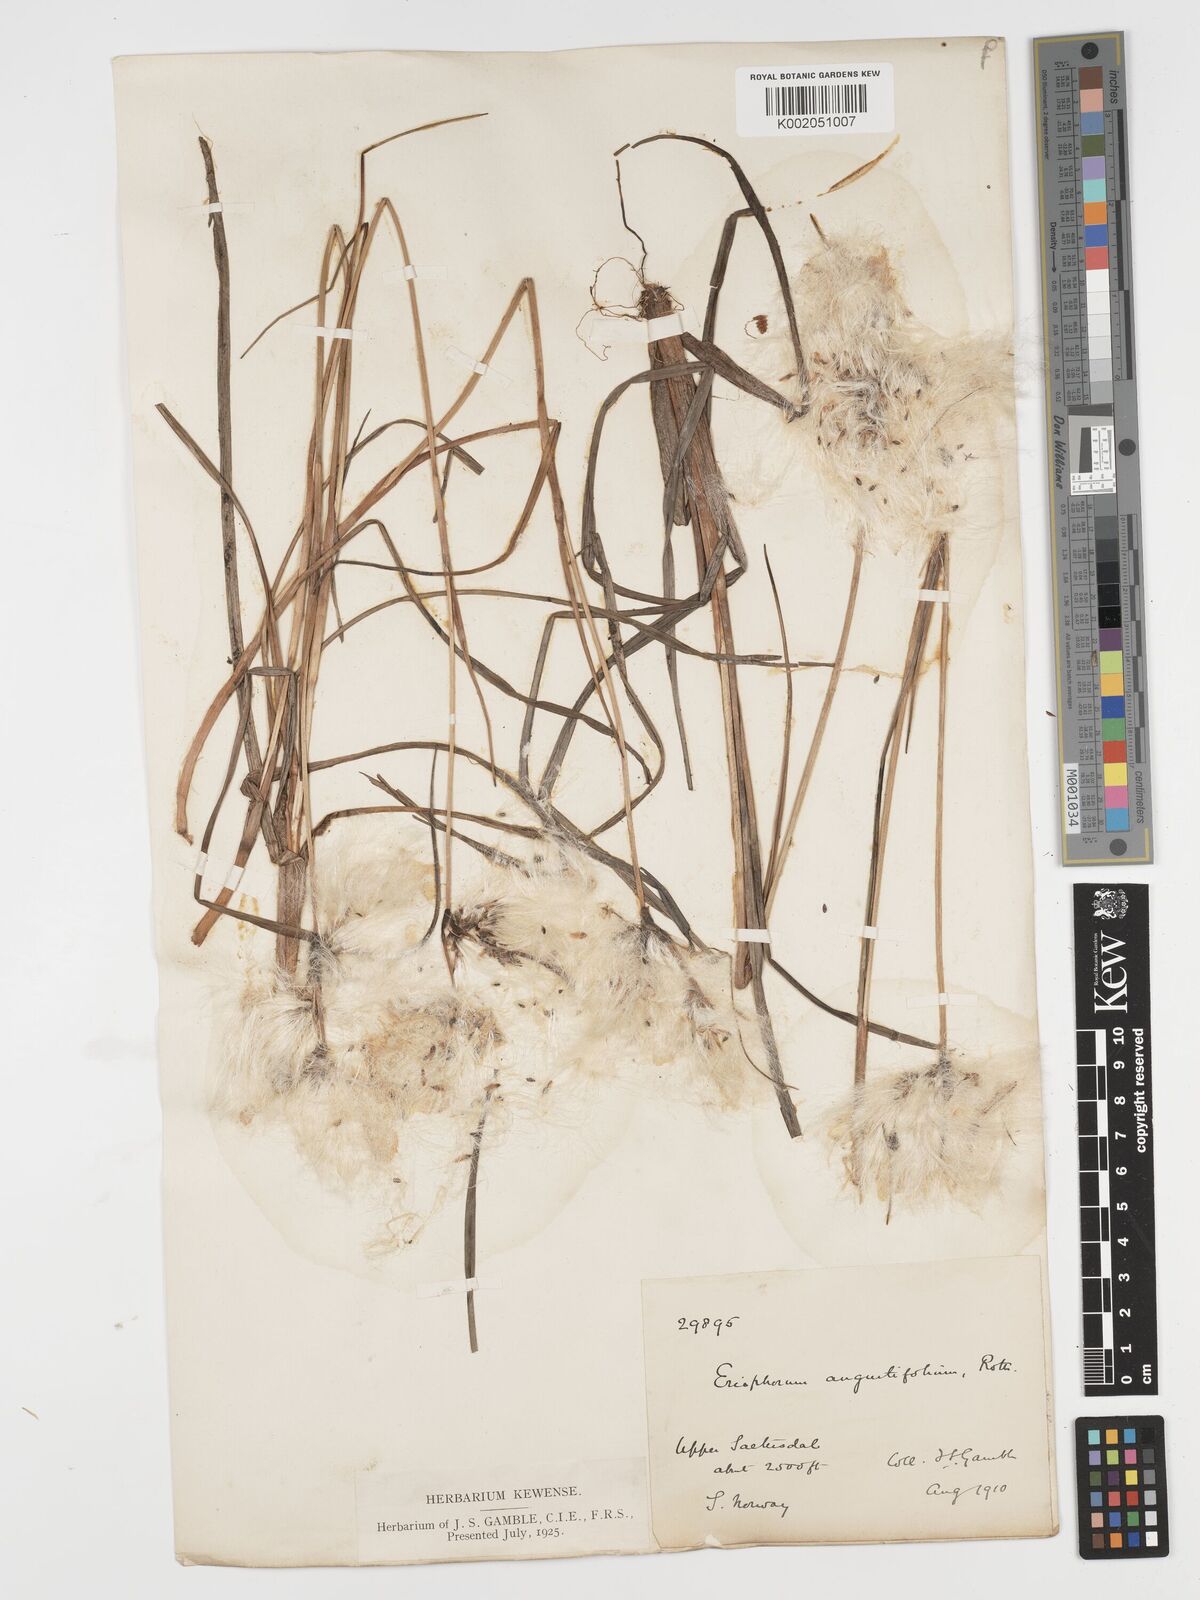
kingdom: Plantae
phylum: Tracheophyta
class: Liliopsida
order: Poales
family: Cyperaceae
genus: Eriophorum
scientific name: Eriophorum angustifolium
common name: Common cottongrass
